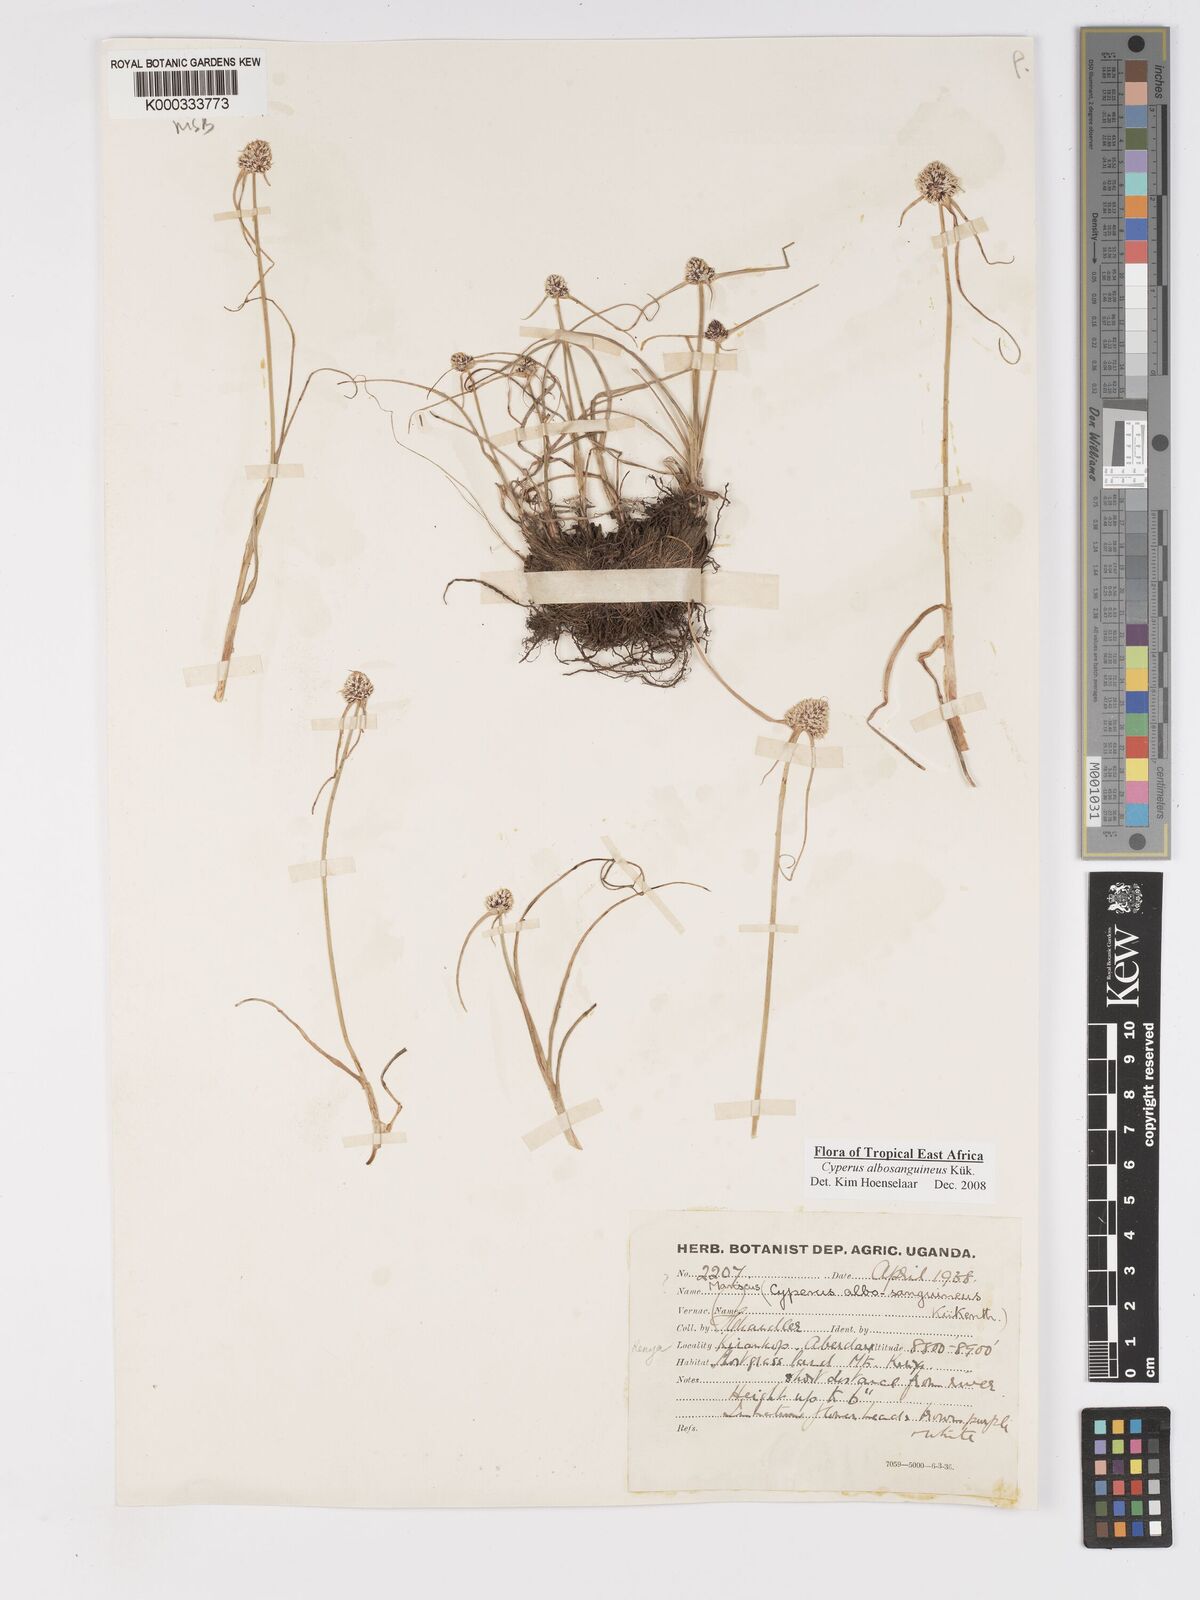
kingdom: Plantae
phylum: Tracheophyta
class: Liliopsida
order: Poales
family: Cyperaceae
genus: Cyperus
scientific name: Cyperus
